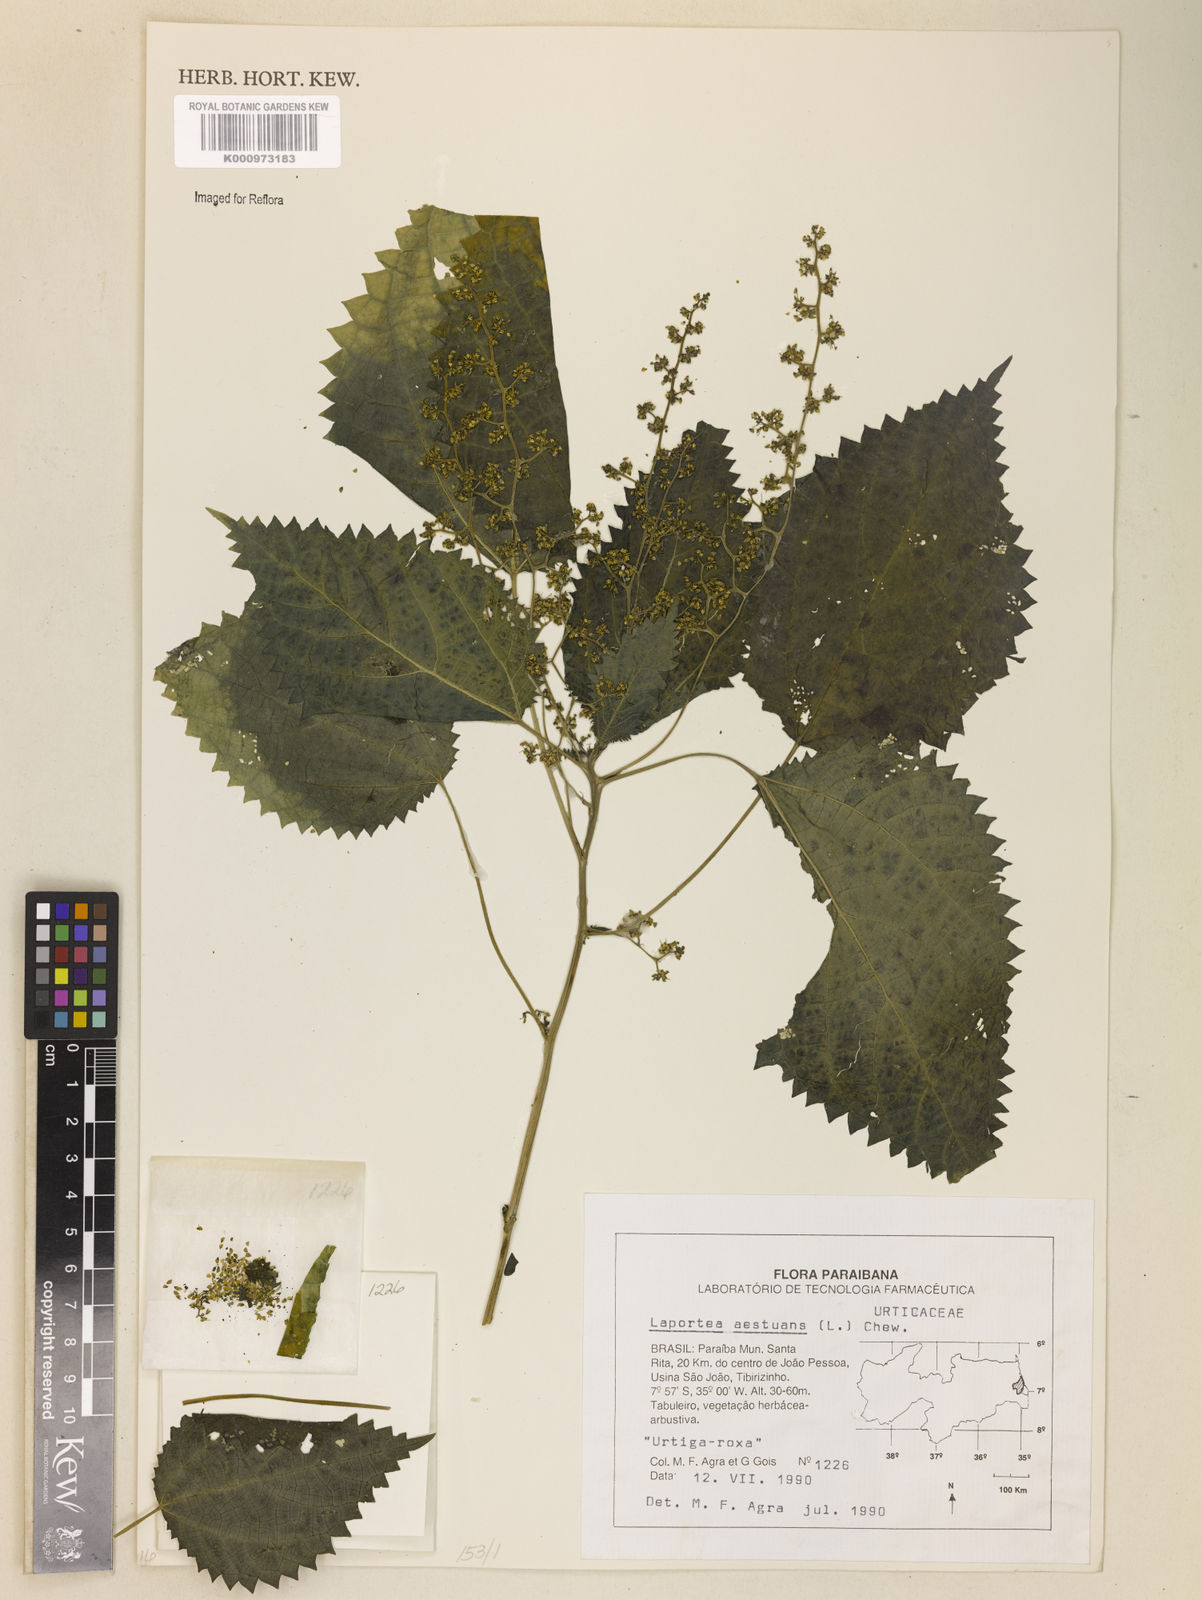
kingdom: Plantae
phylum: Tracheophyta
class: Magnoliopsida
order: Rosales
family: Urticaceae
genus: Laportea
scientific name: Laportea aestuans
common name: West indian woodnettle
